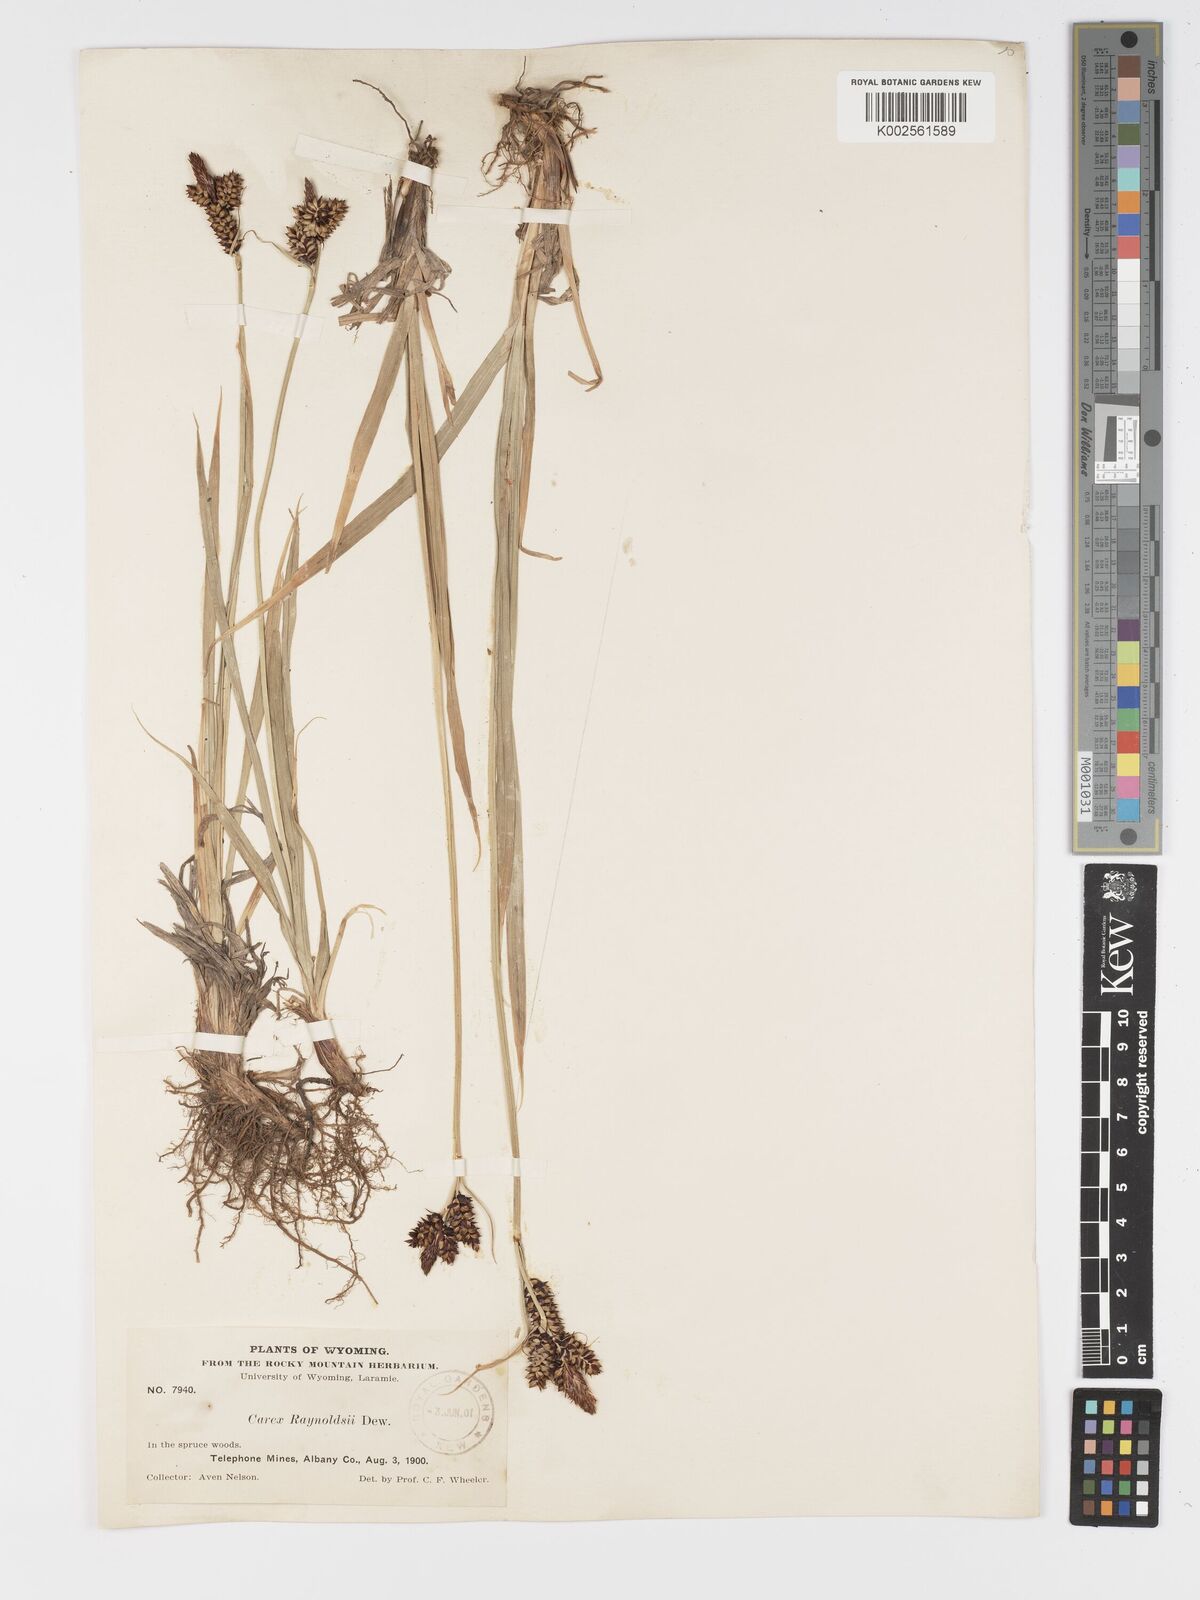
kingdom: Plantae
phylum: Tracheophyta
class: Liliopsida
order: Poales
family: Cyperaceae
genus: Carex
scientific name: Carex raynoldsii
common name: Raynolds' sedge
